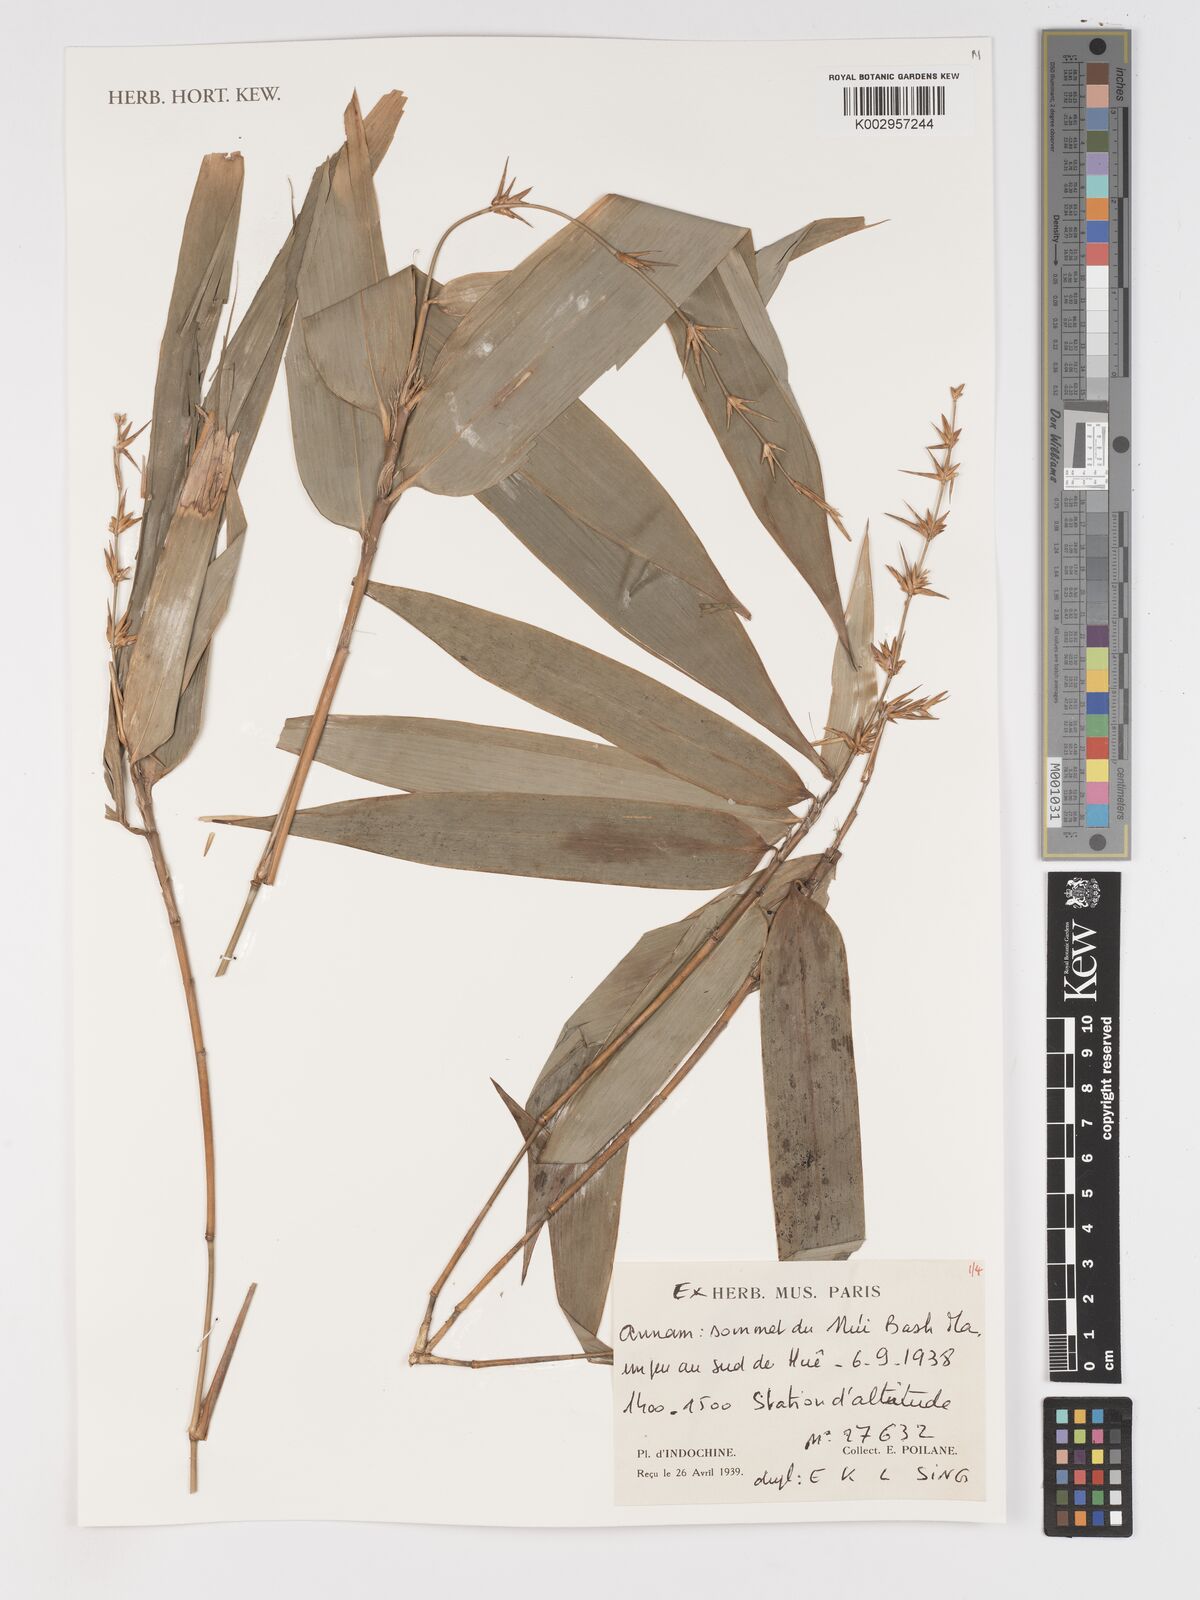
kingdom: Plantae
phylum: Tracheophyta
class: Liliopsida
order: Poales
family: Poaceae
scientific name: Poaceae
